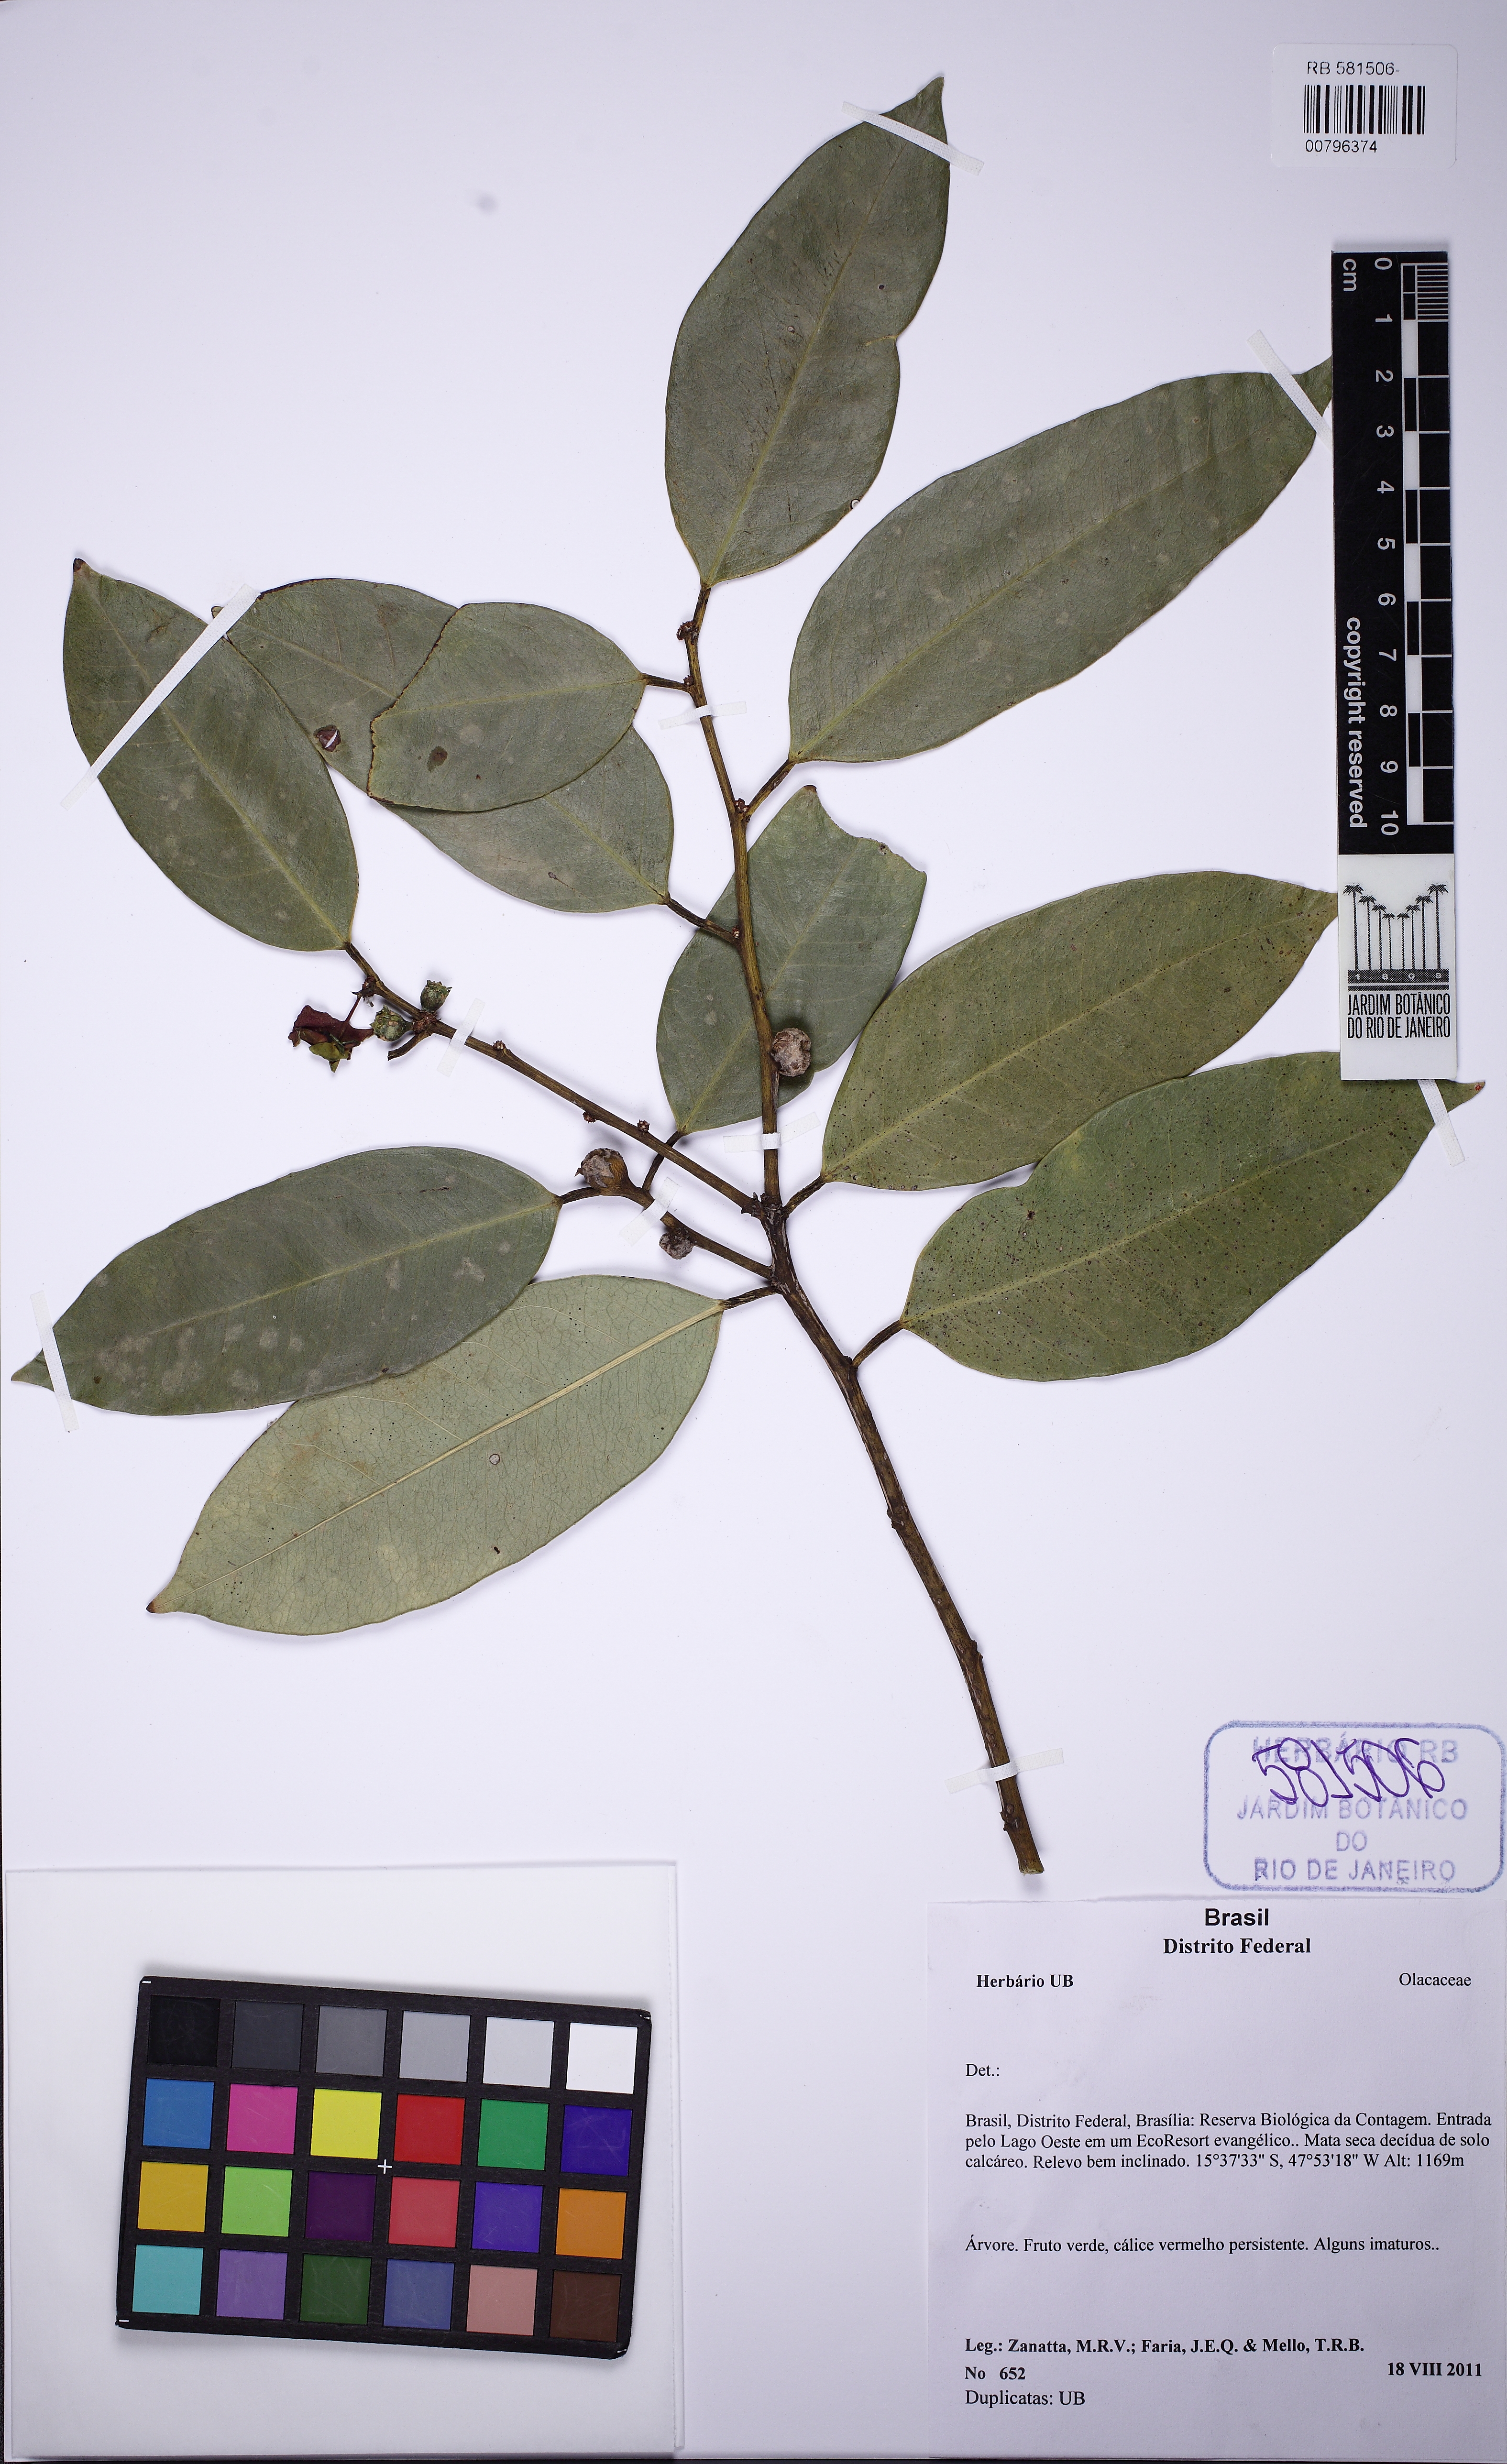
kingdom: Plantae
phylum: Tracheophyta
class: Magnoliopsida
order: Santalales
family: Erythropalaceae
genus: Heisteria
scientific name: Heisteria
